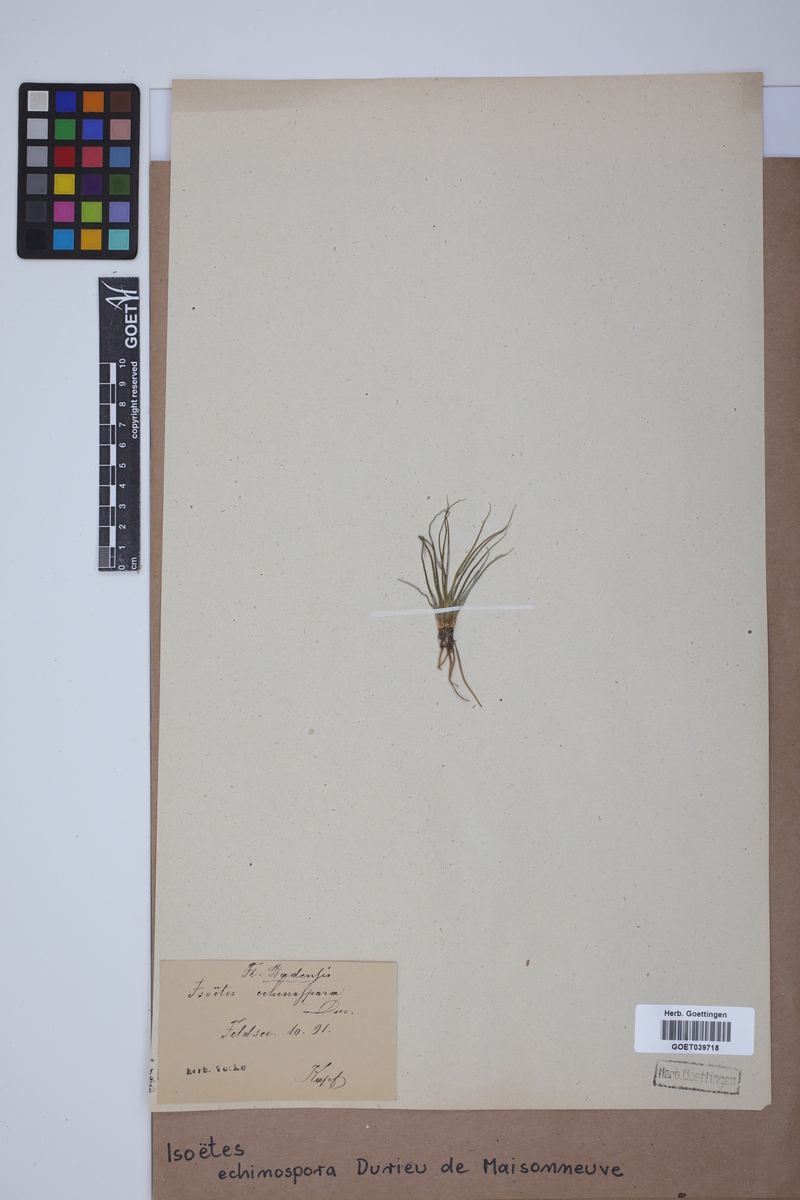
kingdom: Plantae
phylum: Tracheophyta
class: Lycopodiopsida
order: Isoetales
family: Isoetaceae
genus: Isoetes
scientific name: Isoetes echinospora
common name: Spring quillwort
